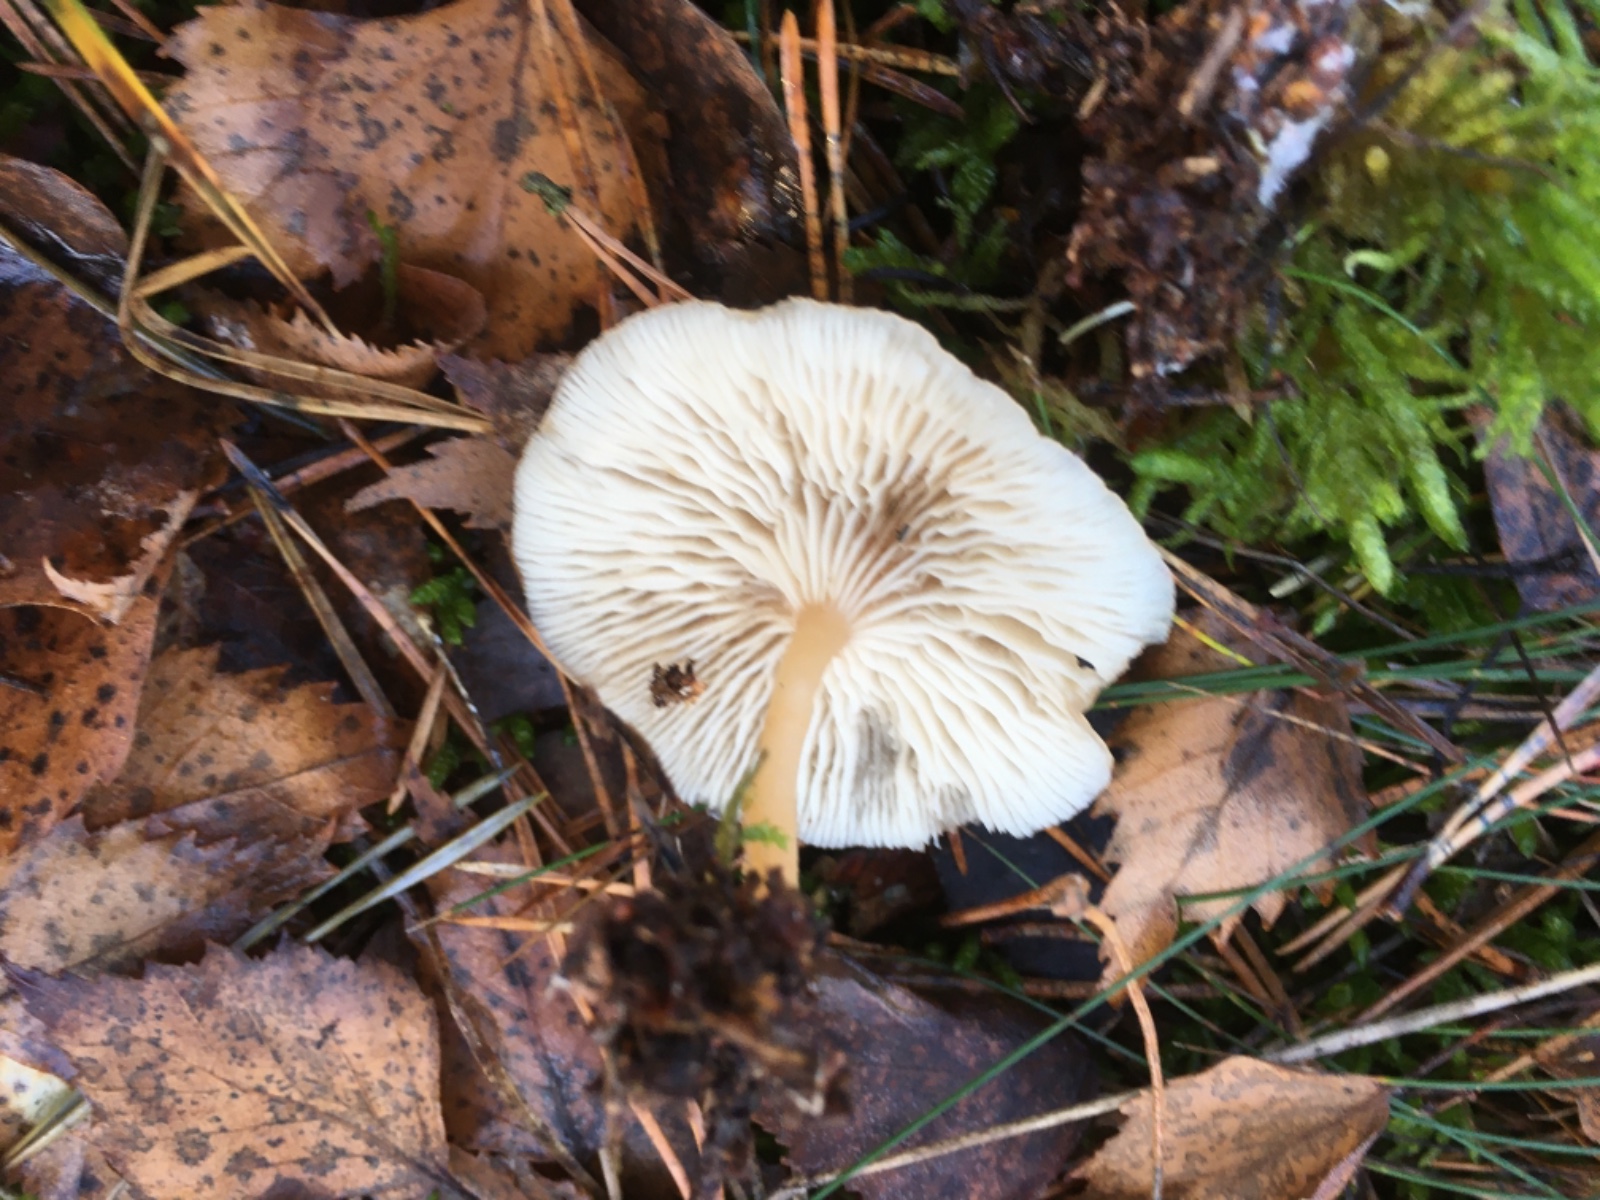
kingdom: Fungi
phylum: Basidiomycota
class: Agaricomycetes
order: Agaricales
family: Tricholomataceae
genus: Clitocybe
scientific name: Clitocybe
